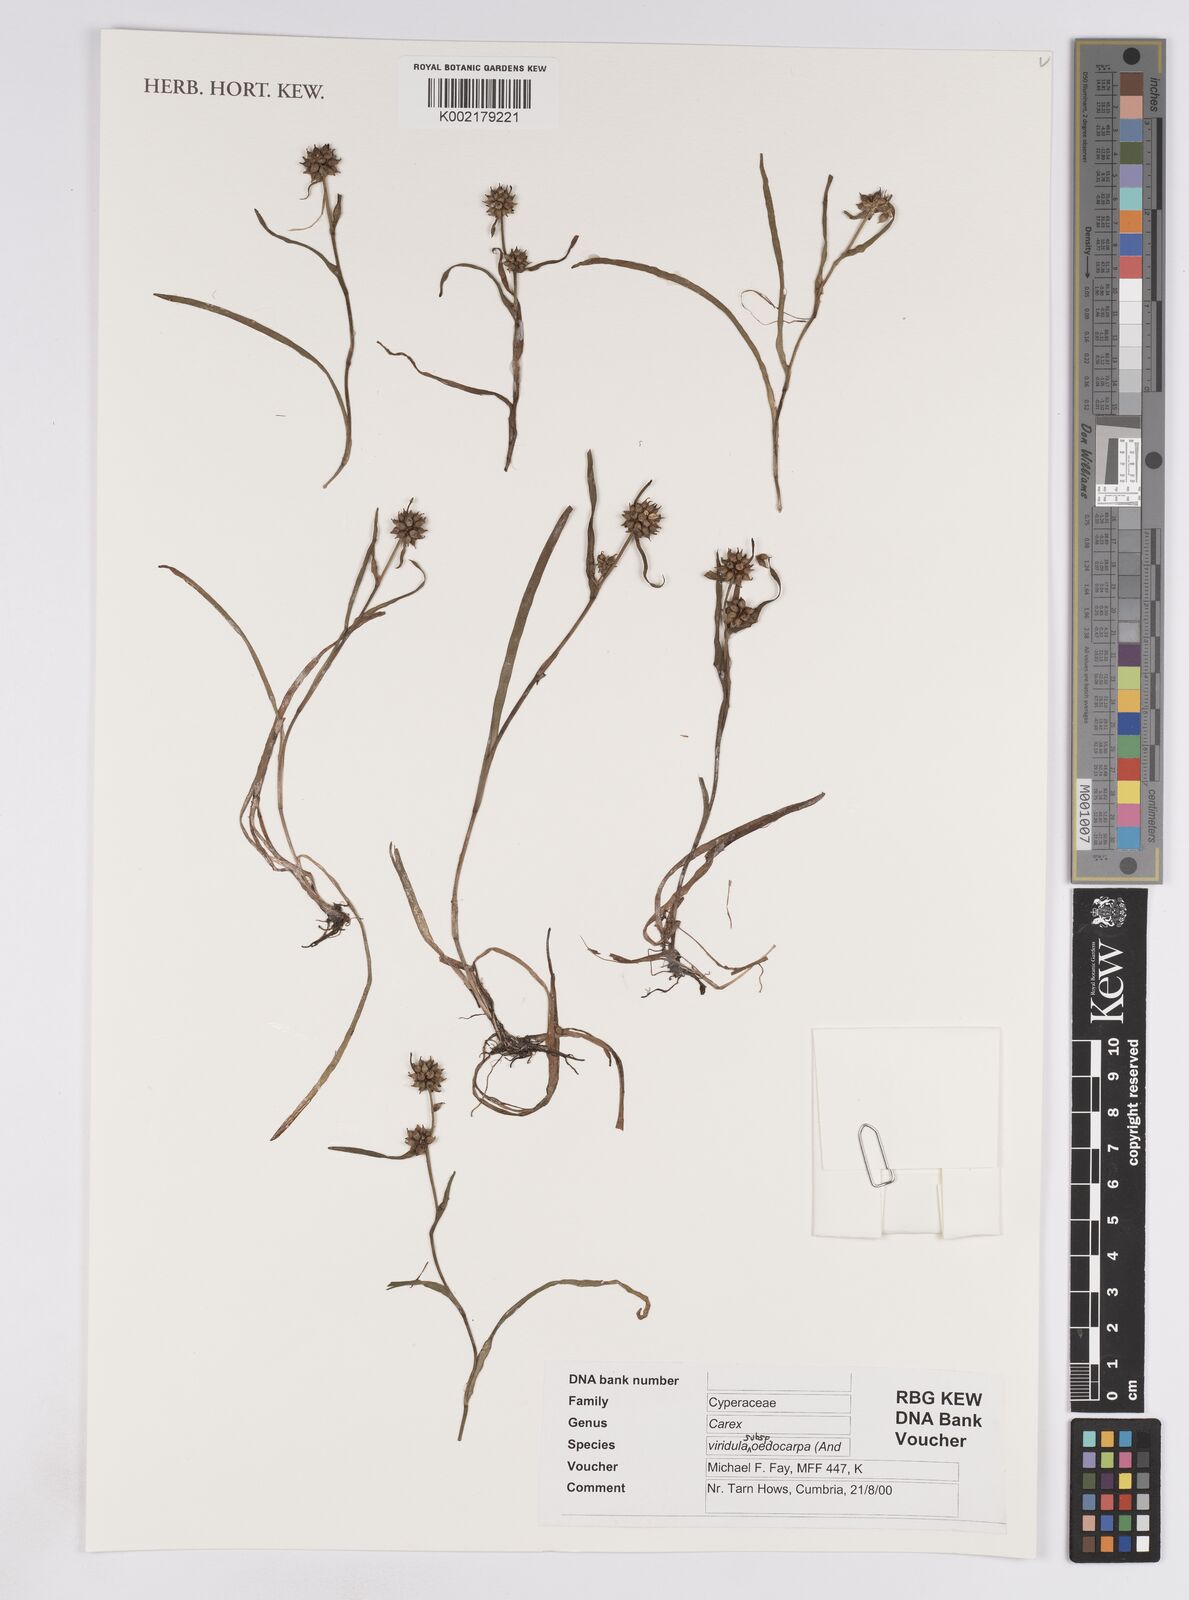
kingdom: Plantae
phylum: Tracheophyta
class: Liliopsida
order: Poales
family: Cyperaceae
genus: Carex
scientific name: Carex demissa
